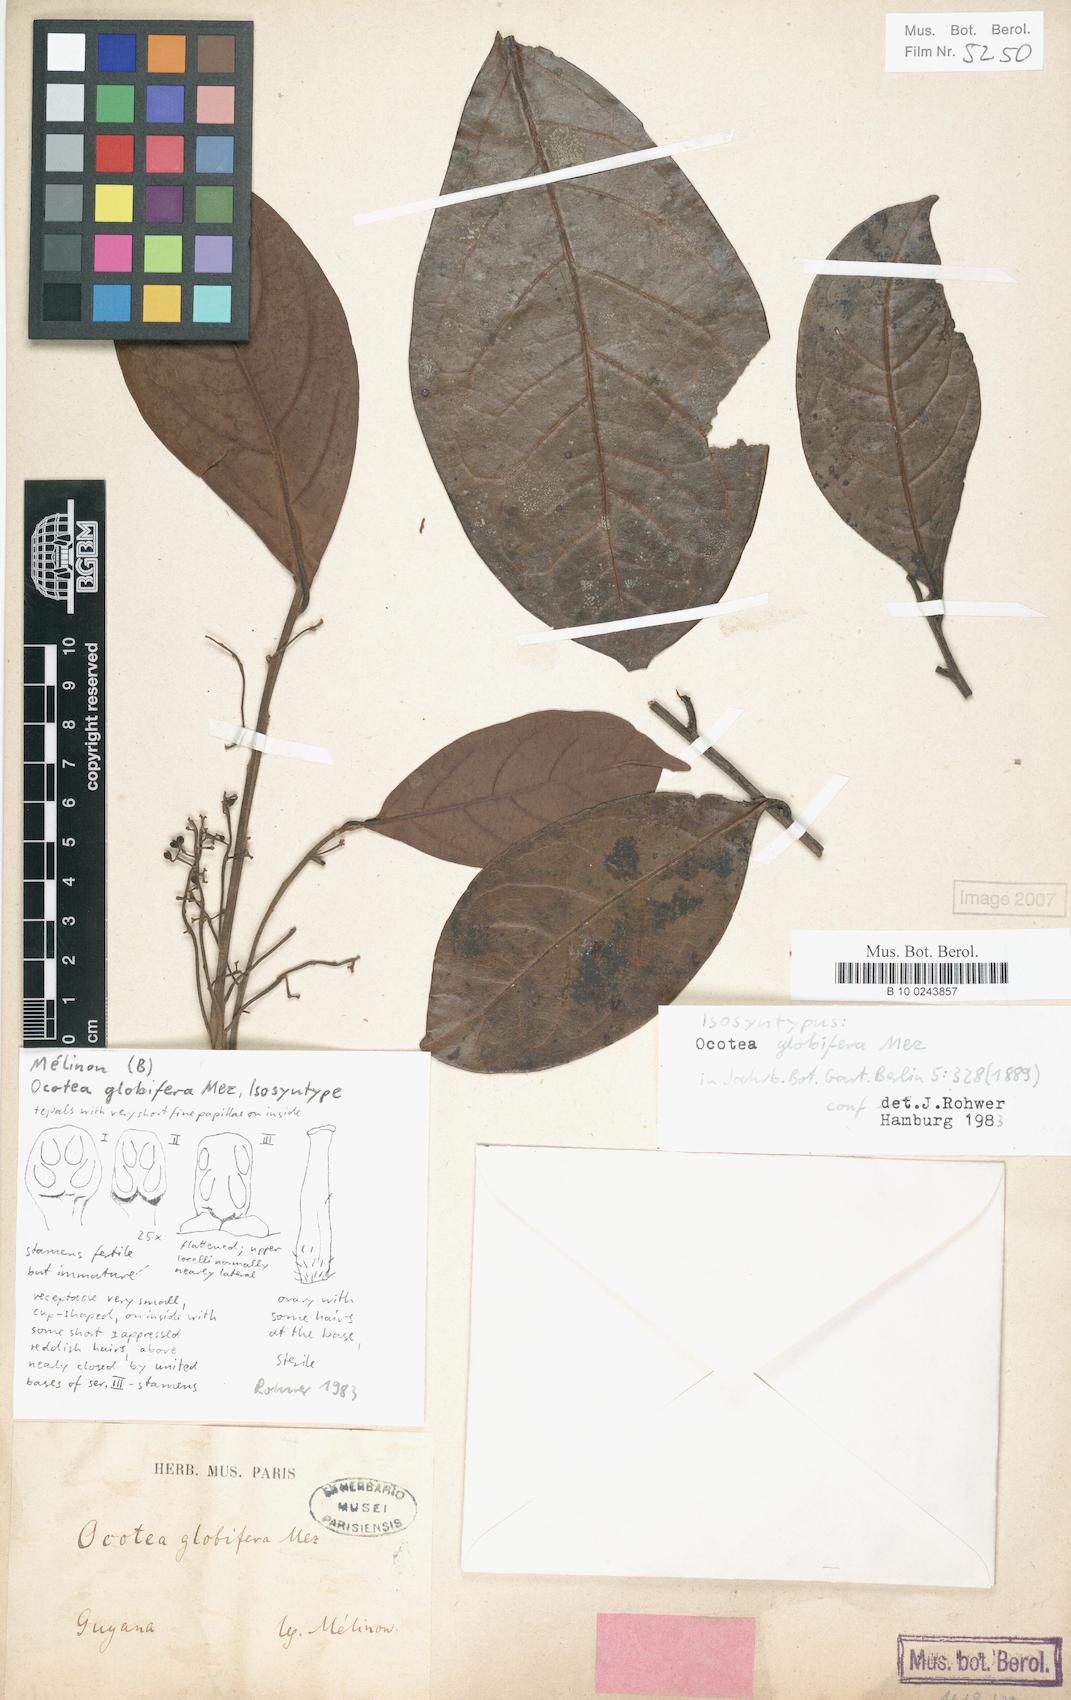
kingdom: Plantae
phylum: Tracheophyta
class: Magnoliopsida
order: Laurales
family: Lauraceae
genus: Ocotea
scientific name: Ocotea splendens
